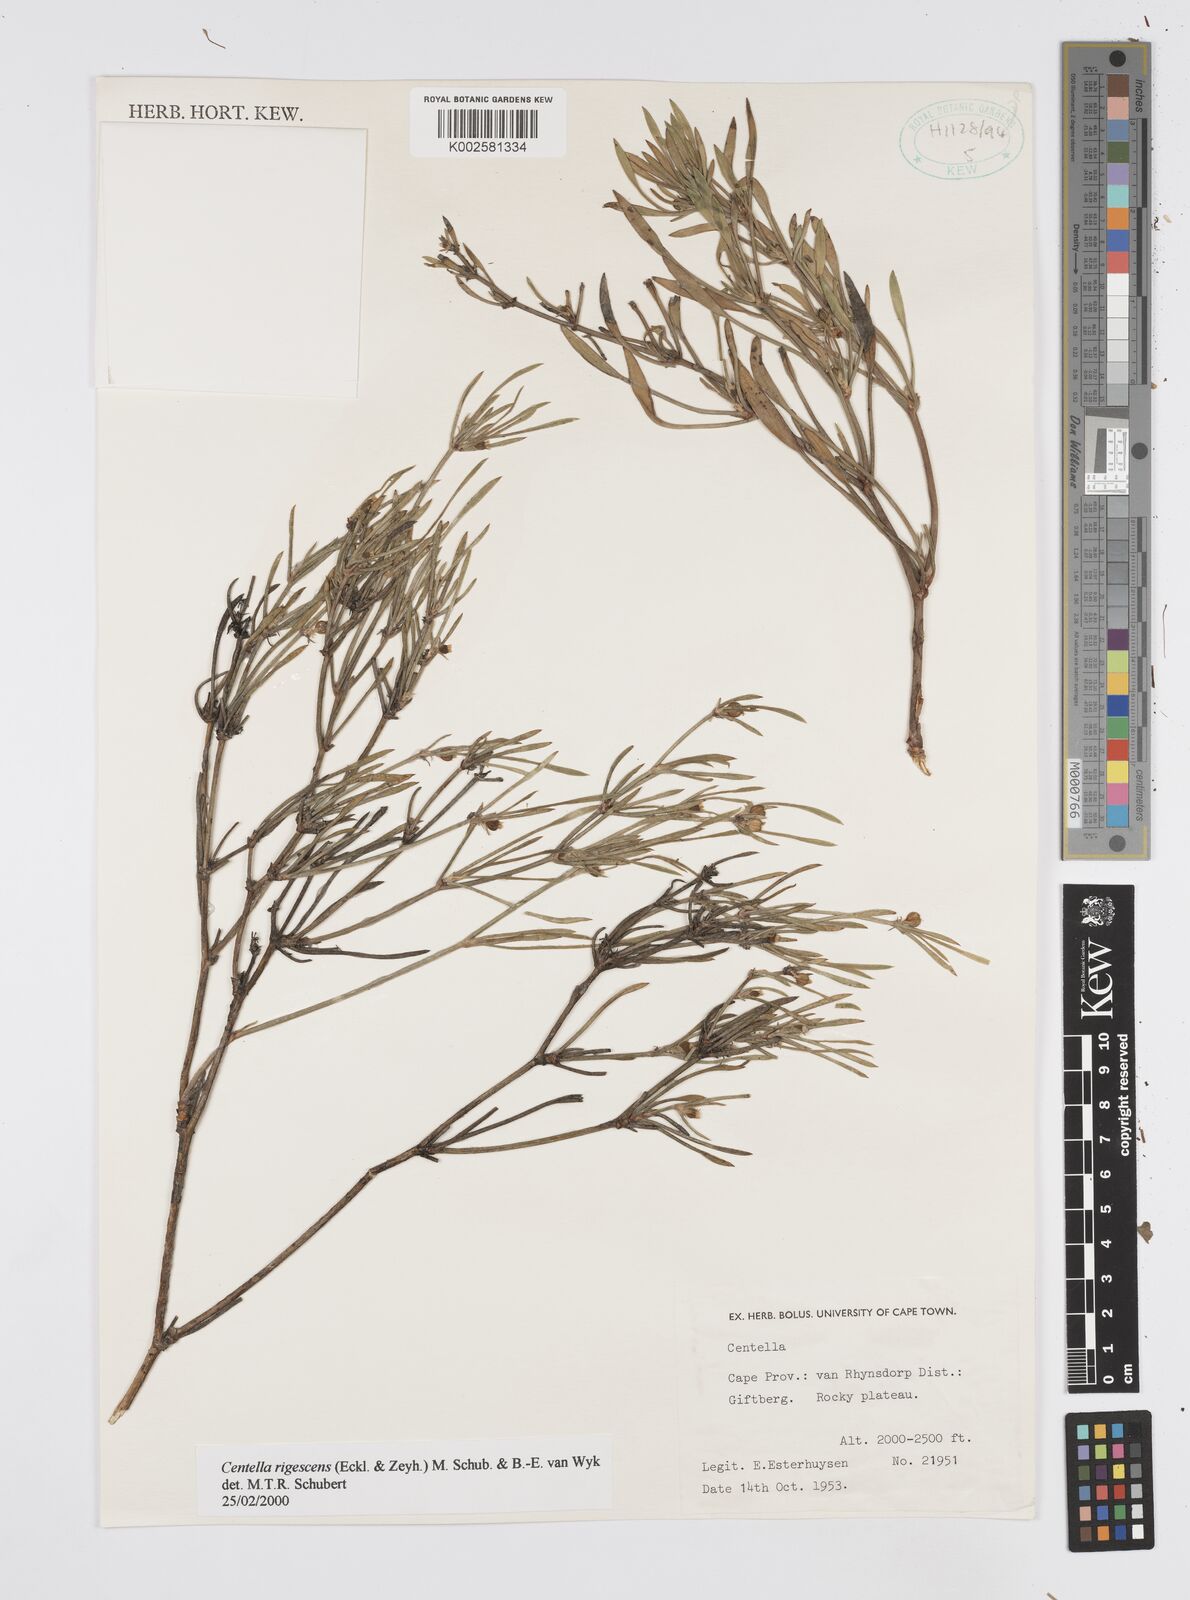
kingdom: Plantae
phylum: Tracheophyta
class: Magnoliopsida
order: Apiales
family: Apiaceae
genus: Centella
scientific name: Centella
